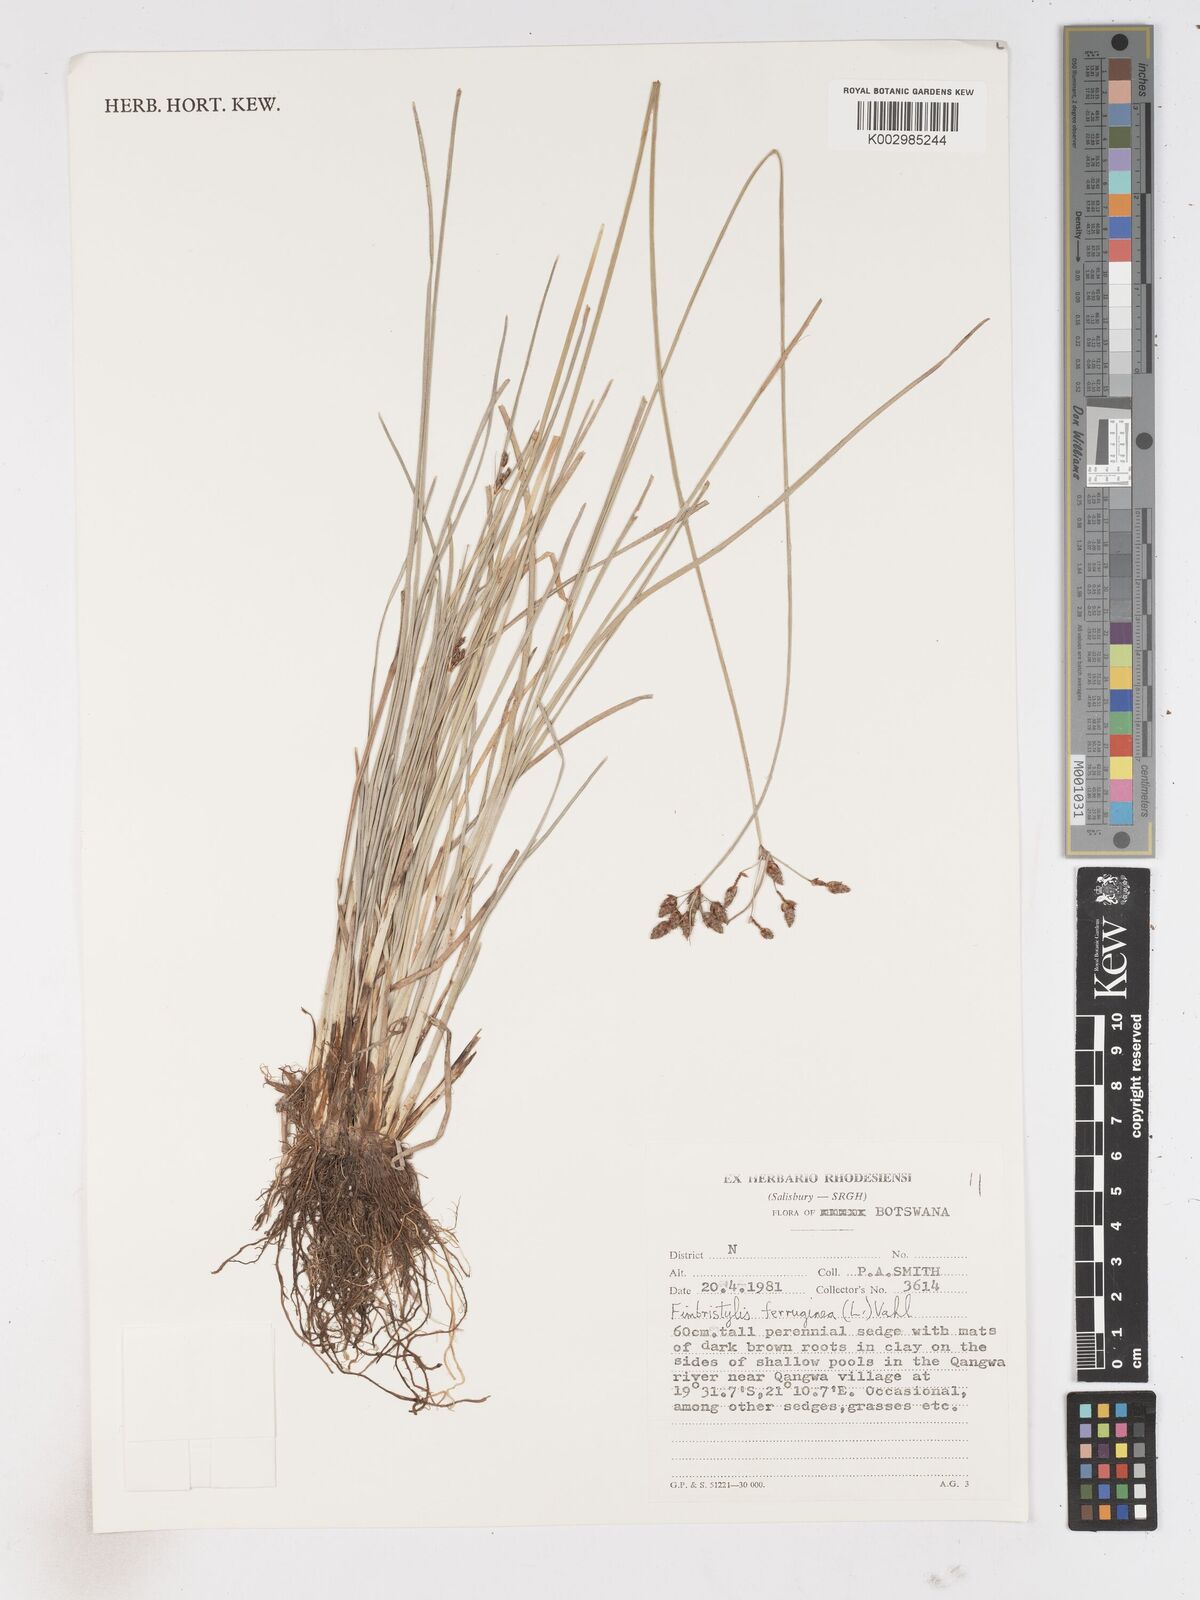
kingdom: Plantae
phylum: Tracheophyta
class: Liliopsida
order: Poales
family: Cyperaceae
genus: Fimbristylis
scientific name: Fimbristylis ferruginea
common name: West indian fimbry
